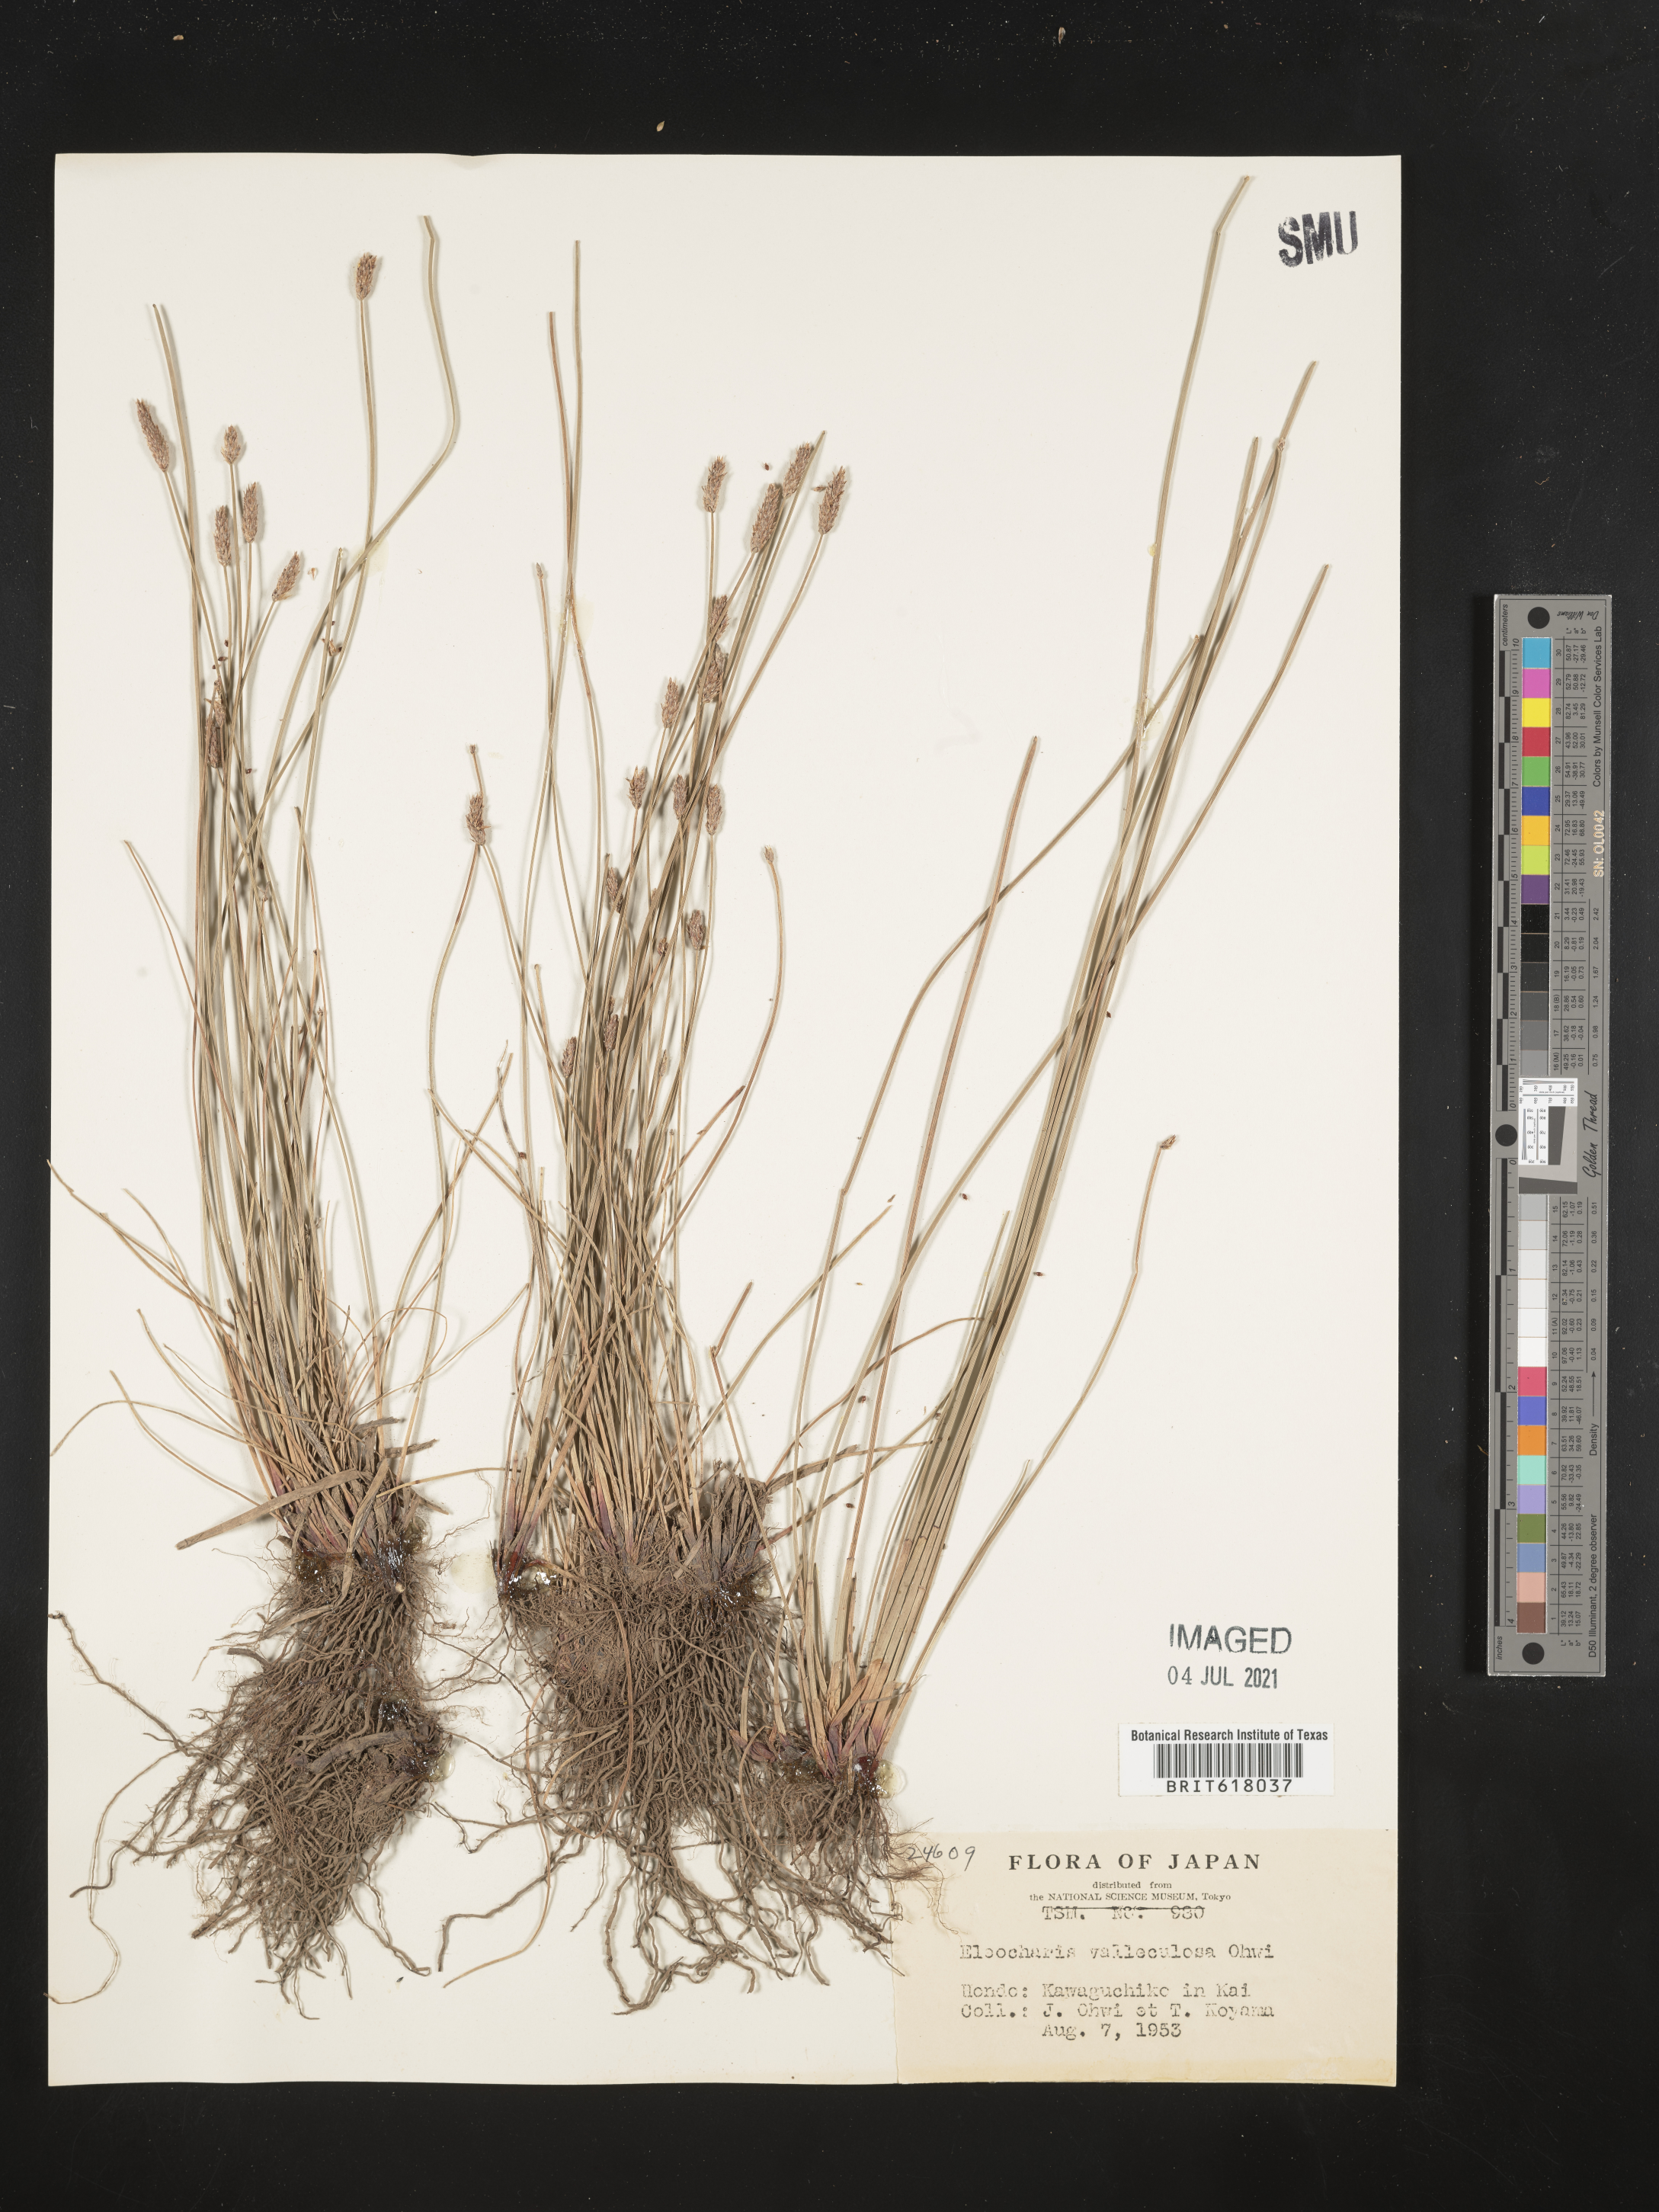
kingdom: Plantae
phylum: Tracheophyta
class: Liliopsida
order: Poales
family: Cyperaceae
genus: Eleocharis
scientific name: Eleocharis valleculosa
